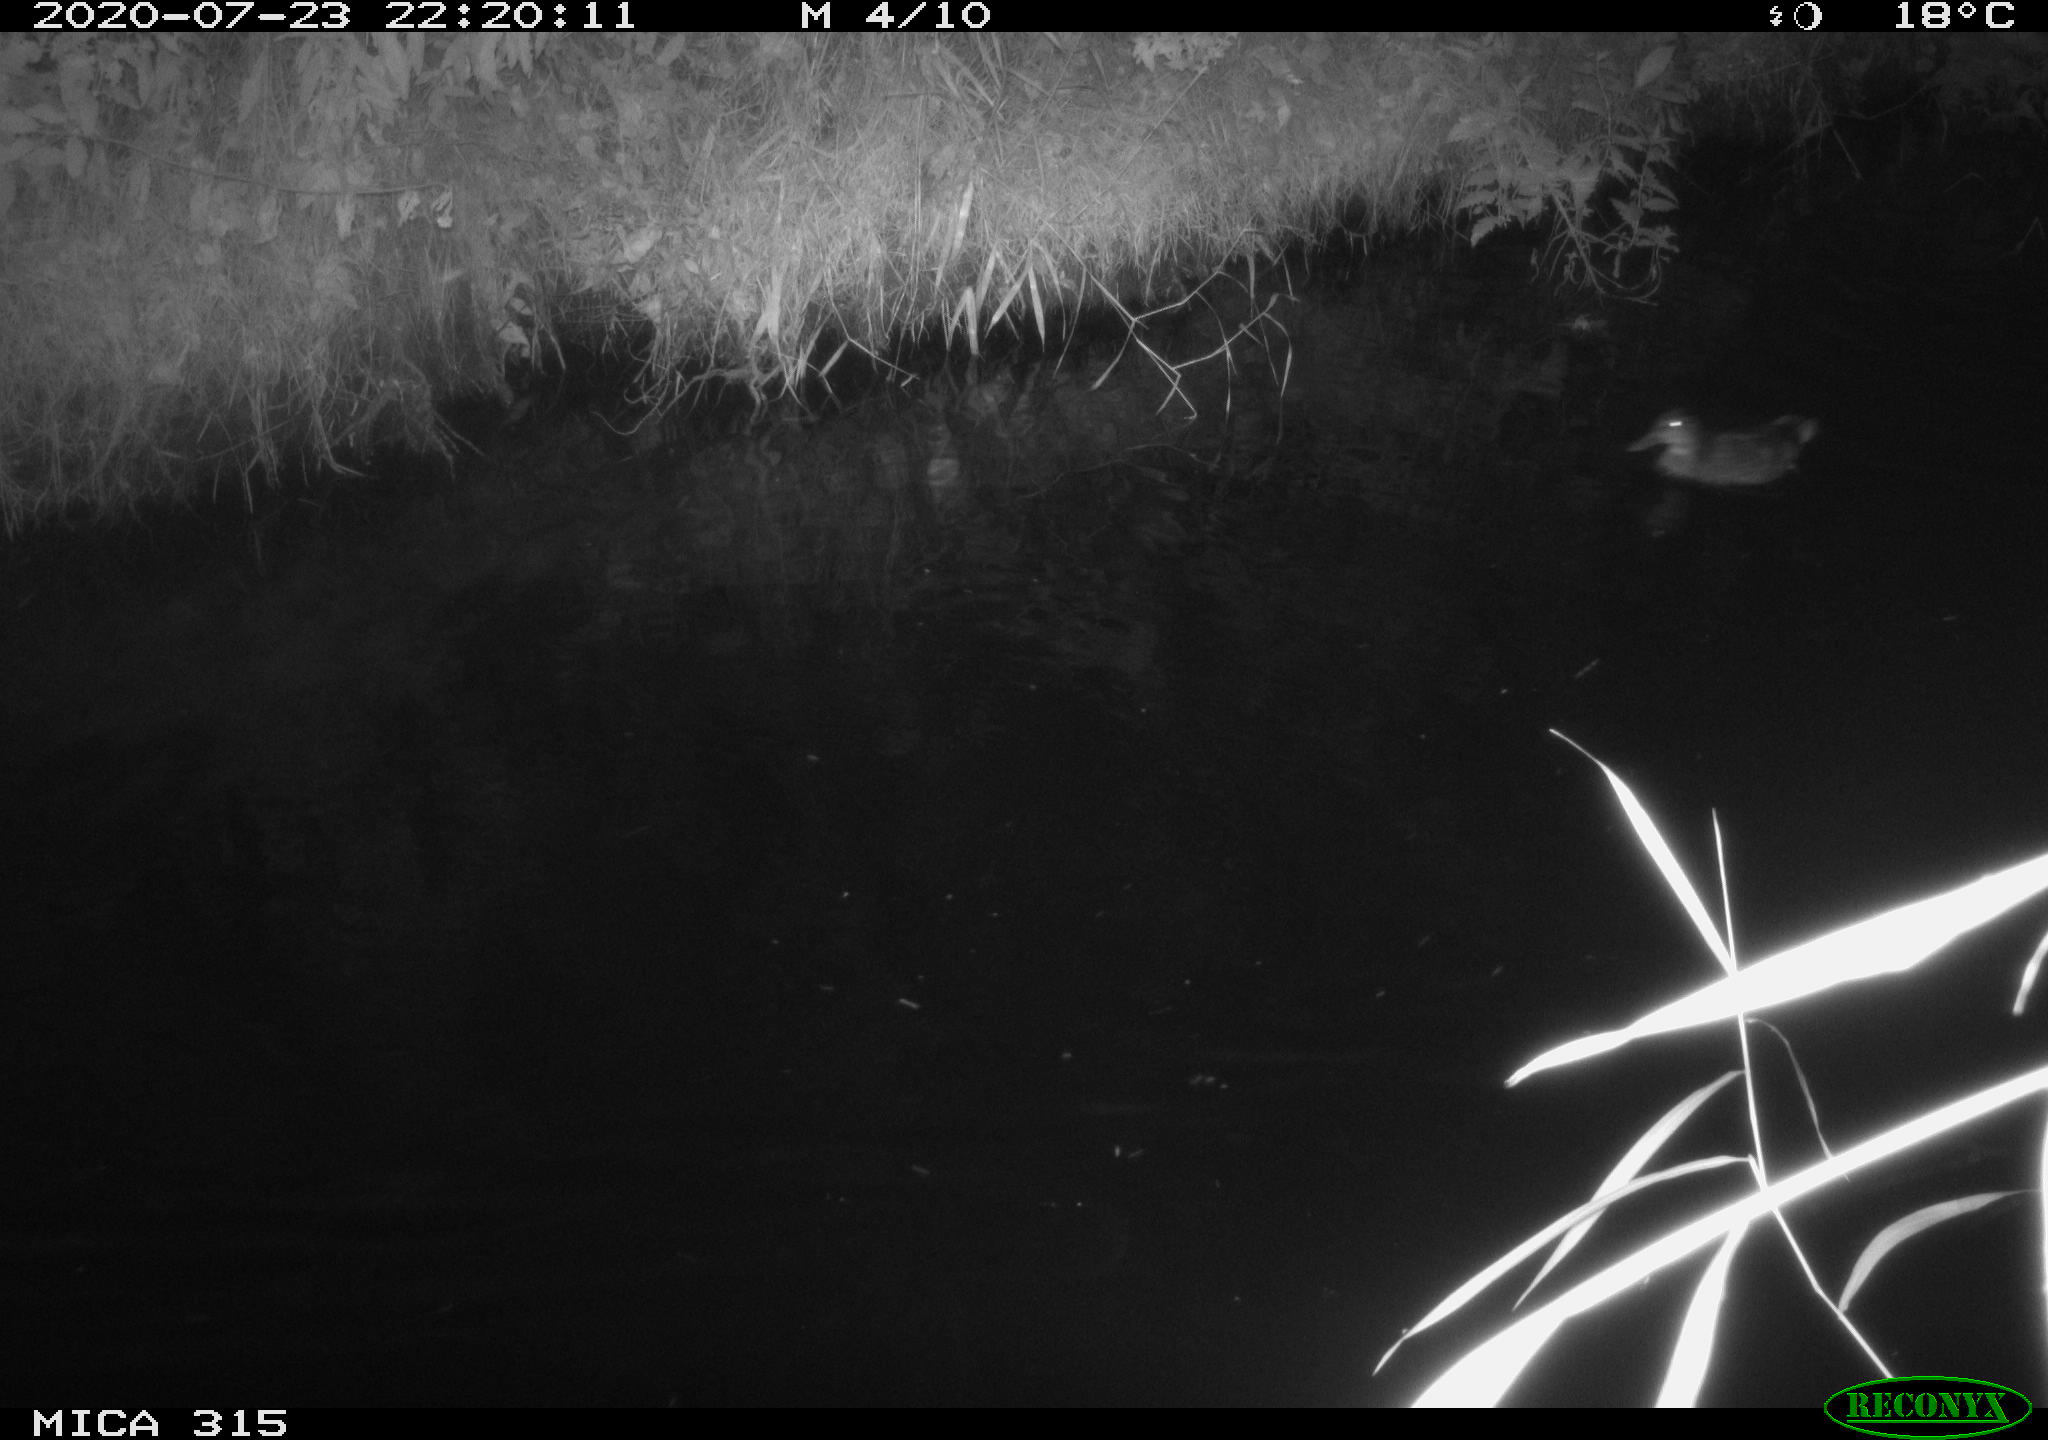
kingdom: Animalia
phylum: Chordata
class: Aves
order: Anseriformes
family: Anatidae
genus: Anas
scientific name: Anas platyrhynchos
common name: Mallard
